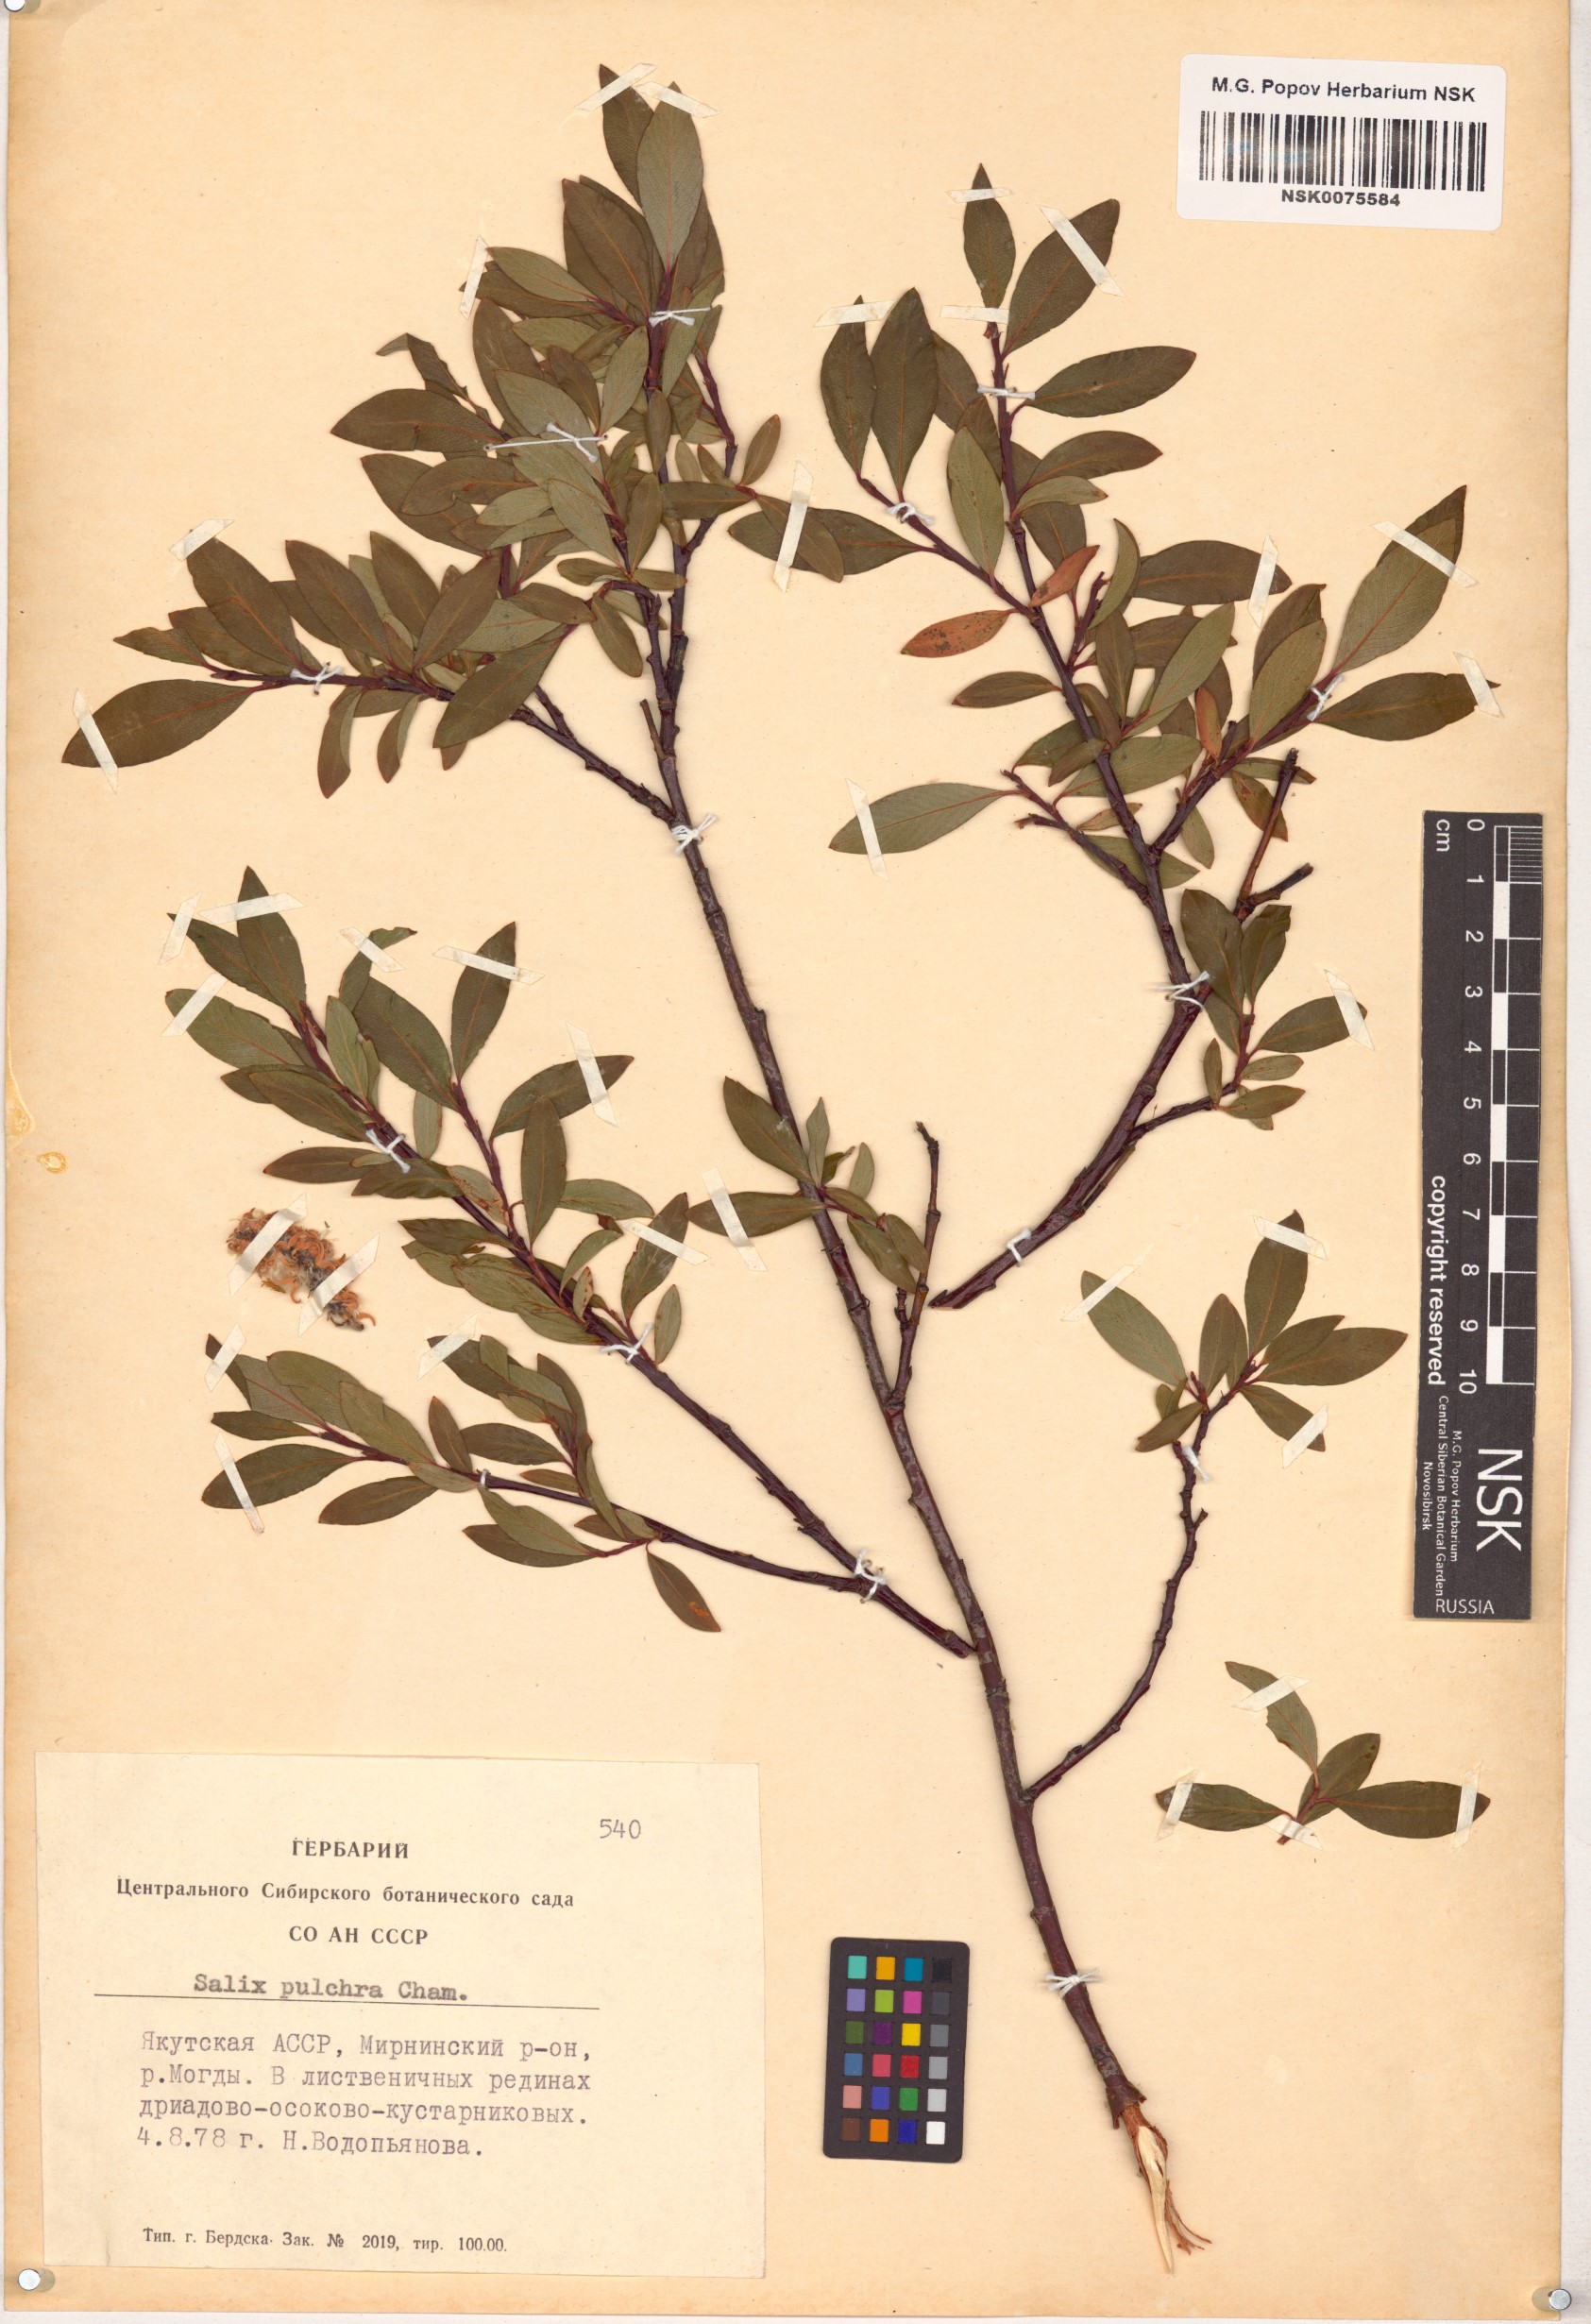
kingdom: Plantae
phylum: Tracheophyta
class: Magnoliopsida
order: Malpighiales
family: Salicaceae
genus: Salix
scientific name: Salix pulchra
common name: Diamond-leaved willow
